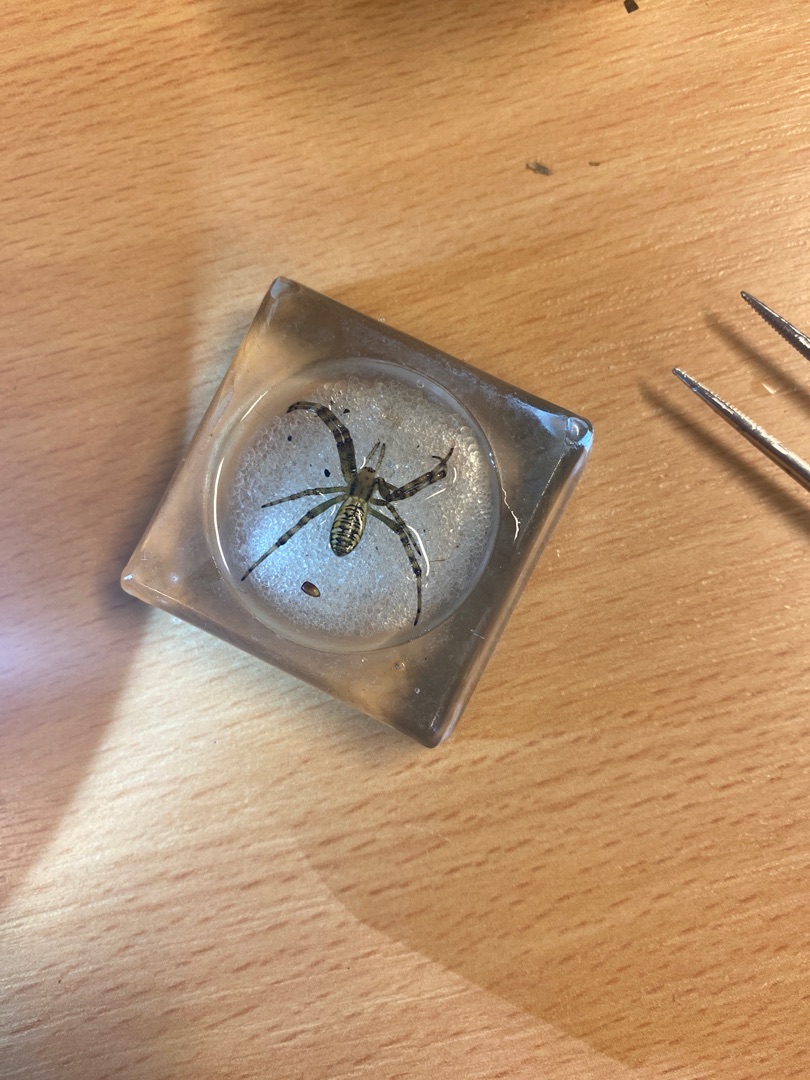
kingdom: Animalia
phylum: Arthropoda
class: Arachnida
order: Araneae
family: Araneidae
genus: Argiope
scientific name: Argiope bruennichi
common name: Hvepseedderkop
